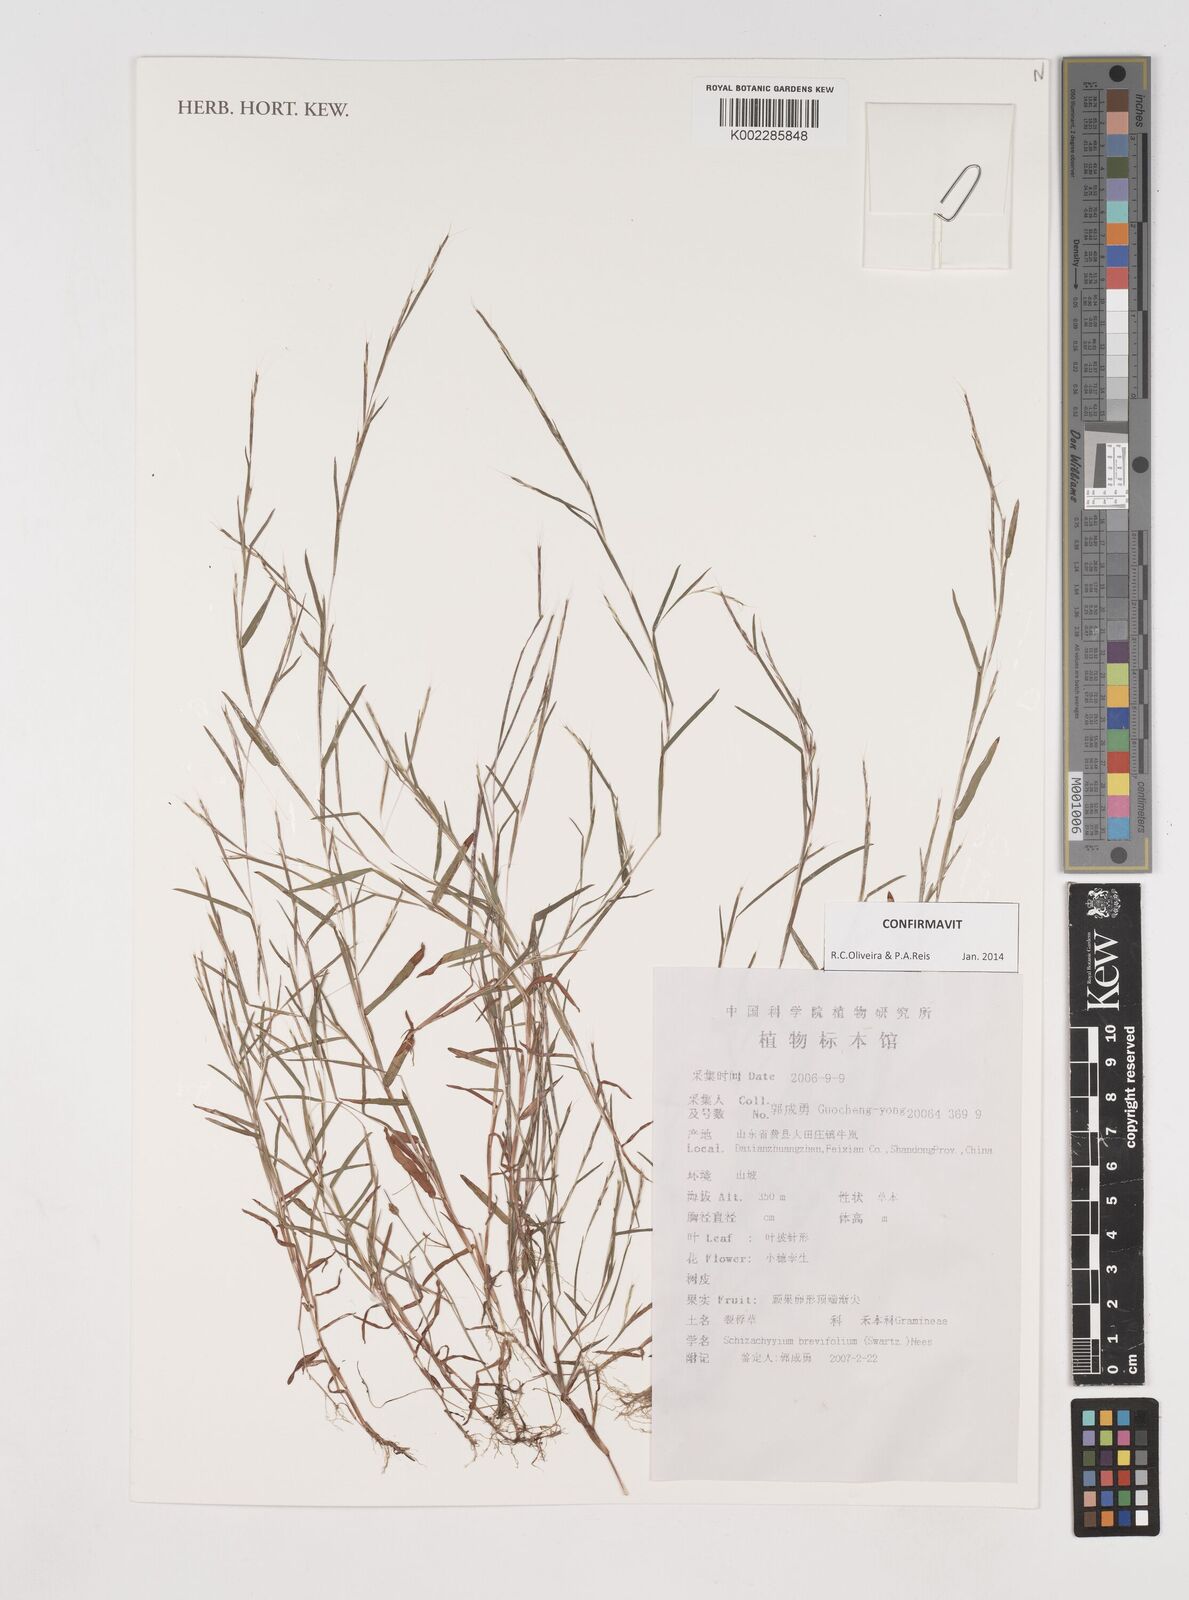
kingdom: Plantae
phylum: Tracheophyta
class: Liliopsida
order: Poales
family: Poaceae
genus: Schizachyrium
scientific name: Schizachyrium brevifolium
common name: Serillo dulce
